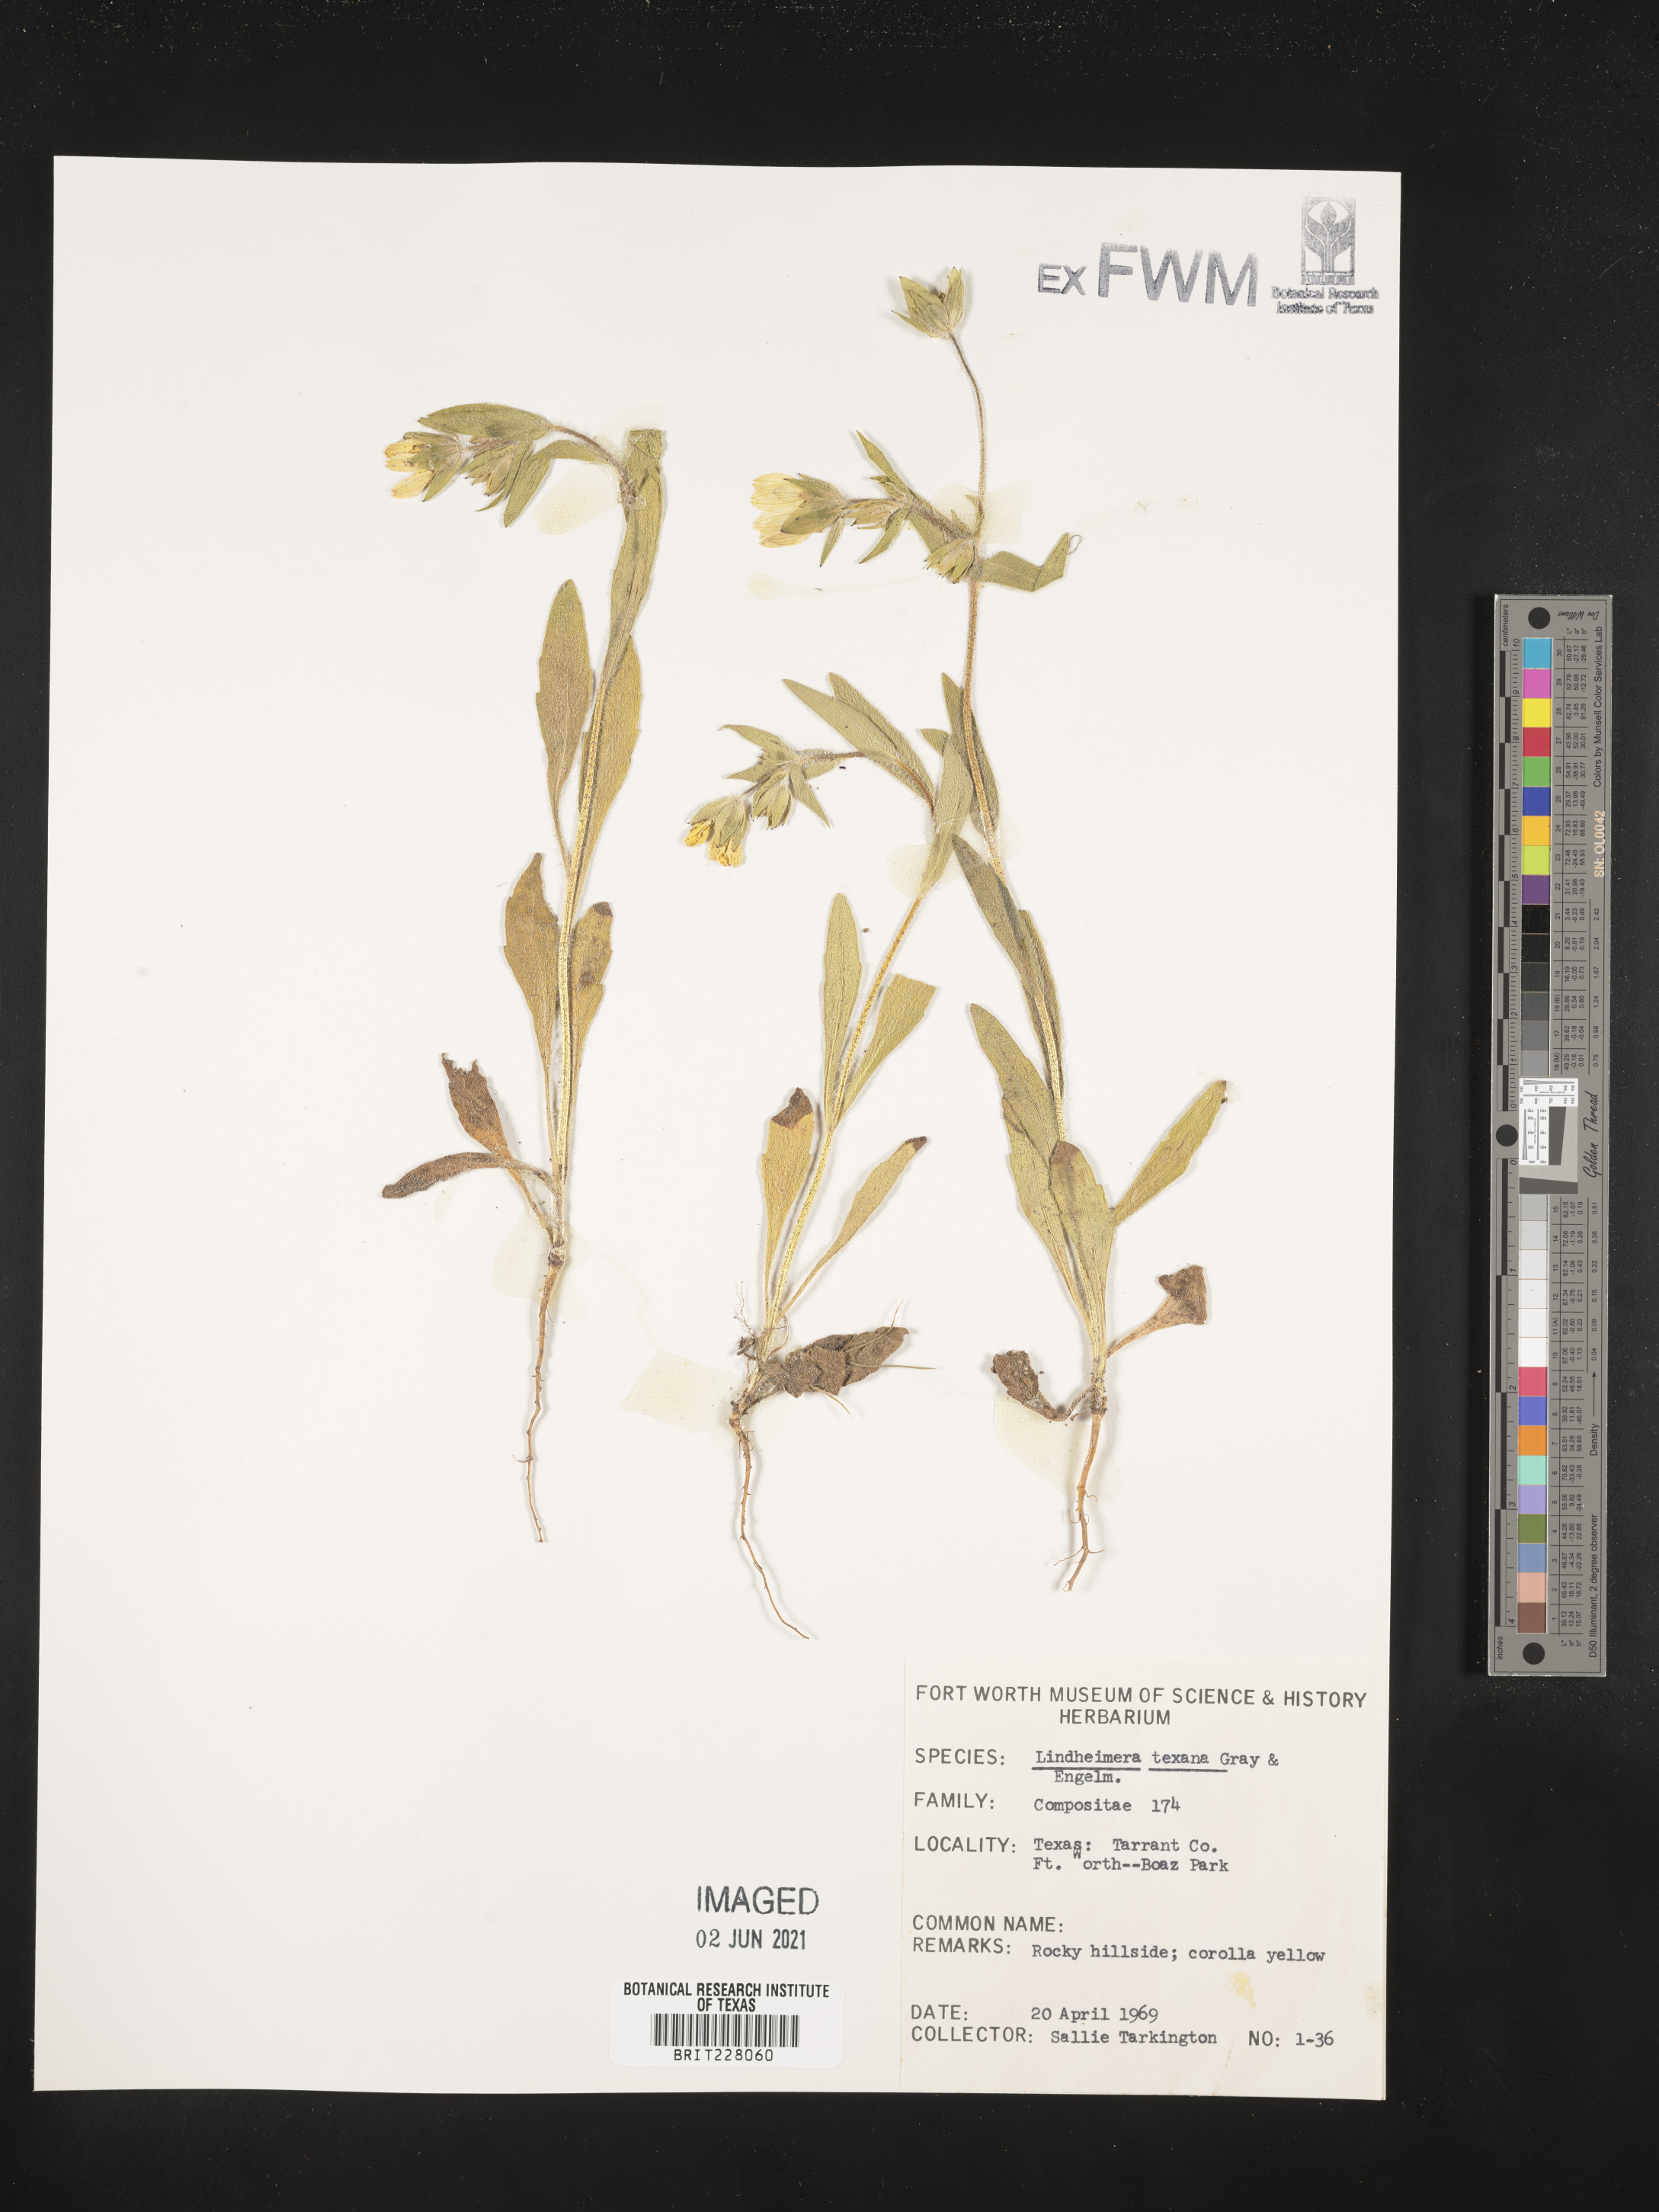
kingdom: Plantae
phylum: Tracheophyta
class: Magnoliopsida
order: Asterales
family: Asteraceae
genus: Lindheimera
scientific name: Lindheimera texana
